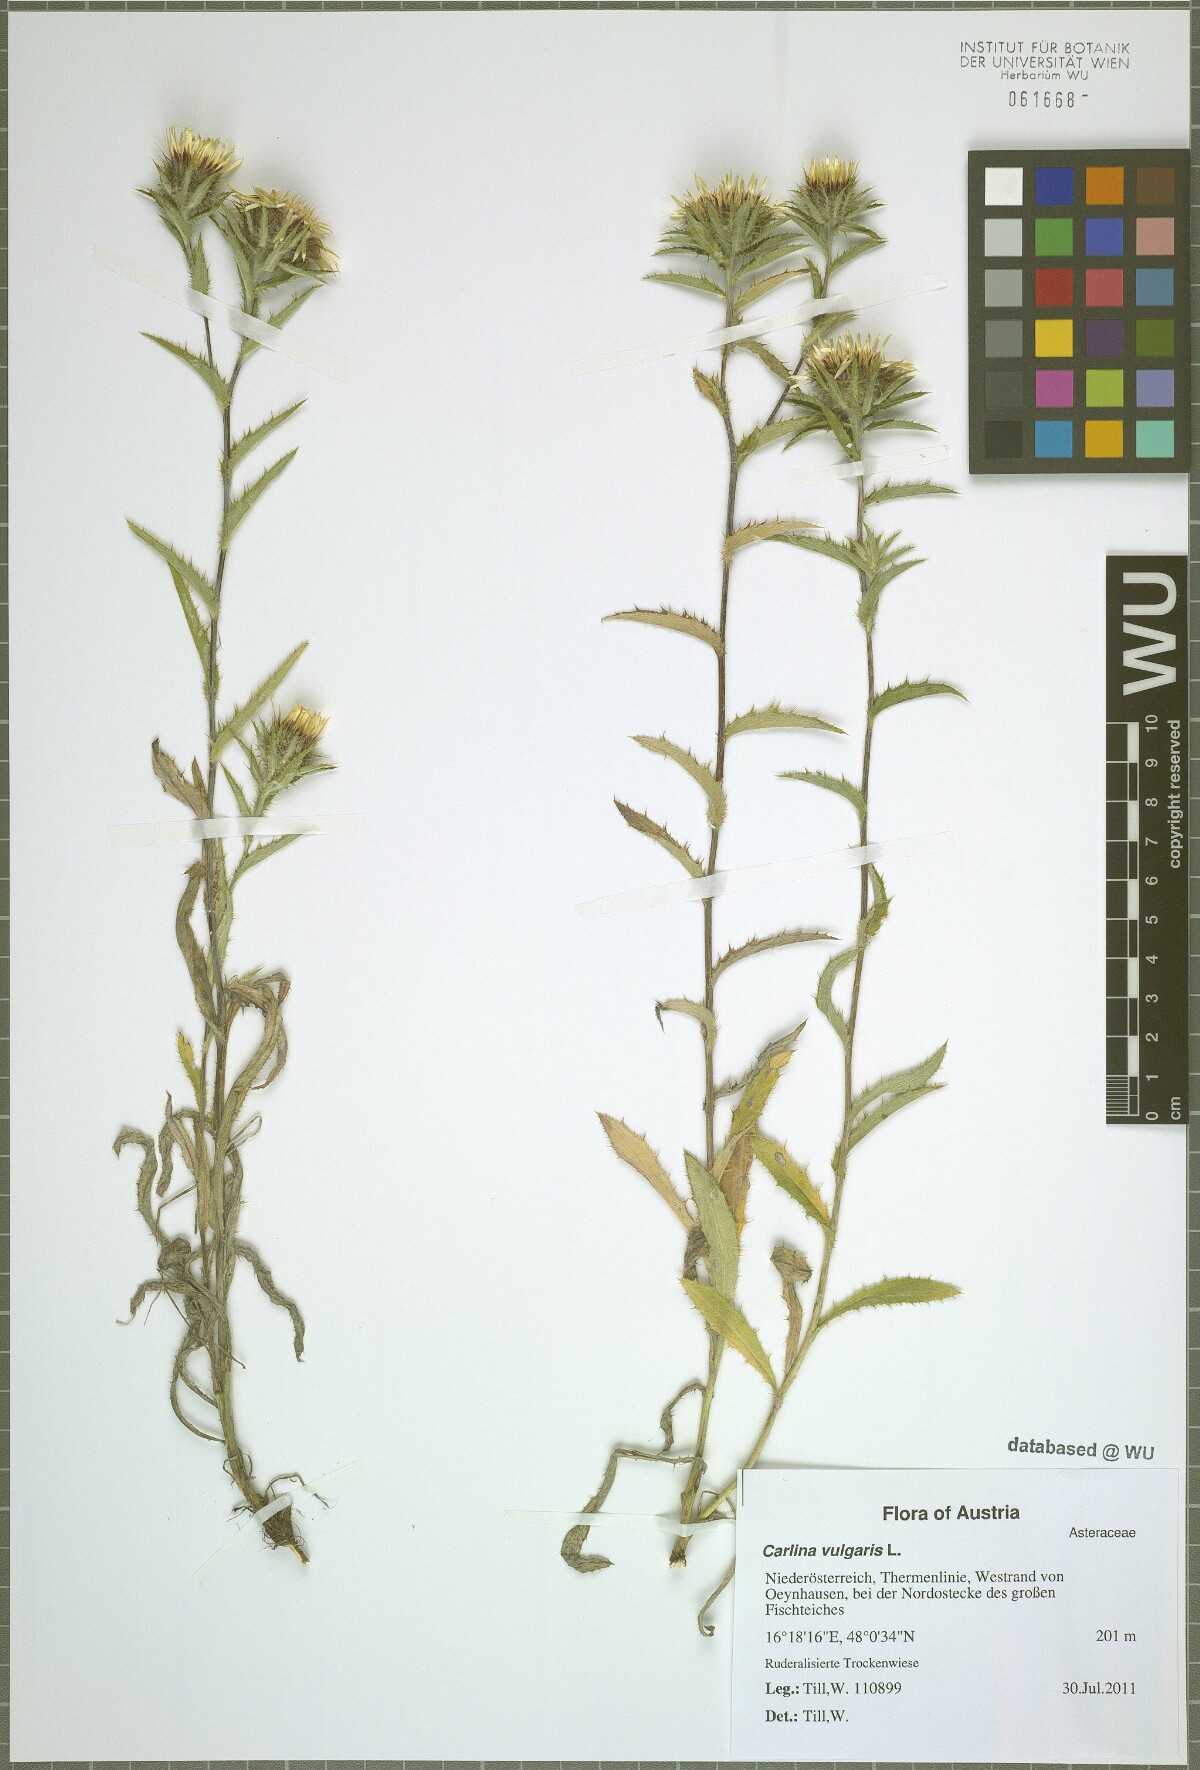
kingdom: Plantae
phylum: Tracheophyta
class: Magnoliopsida
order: Asterales
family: Asteraceae
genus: Carlina
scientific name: Carlina vulgaris
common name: Carline thistle
